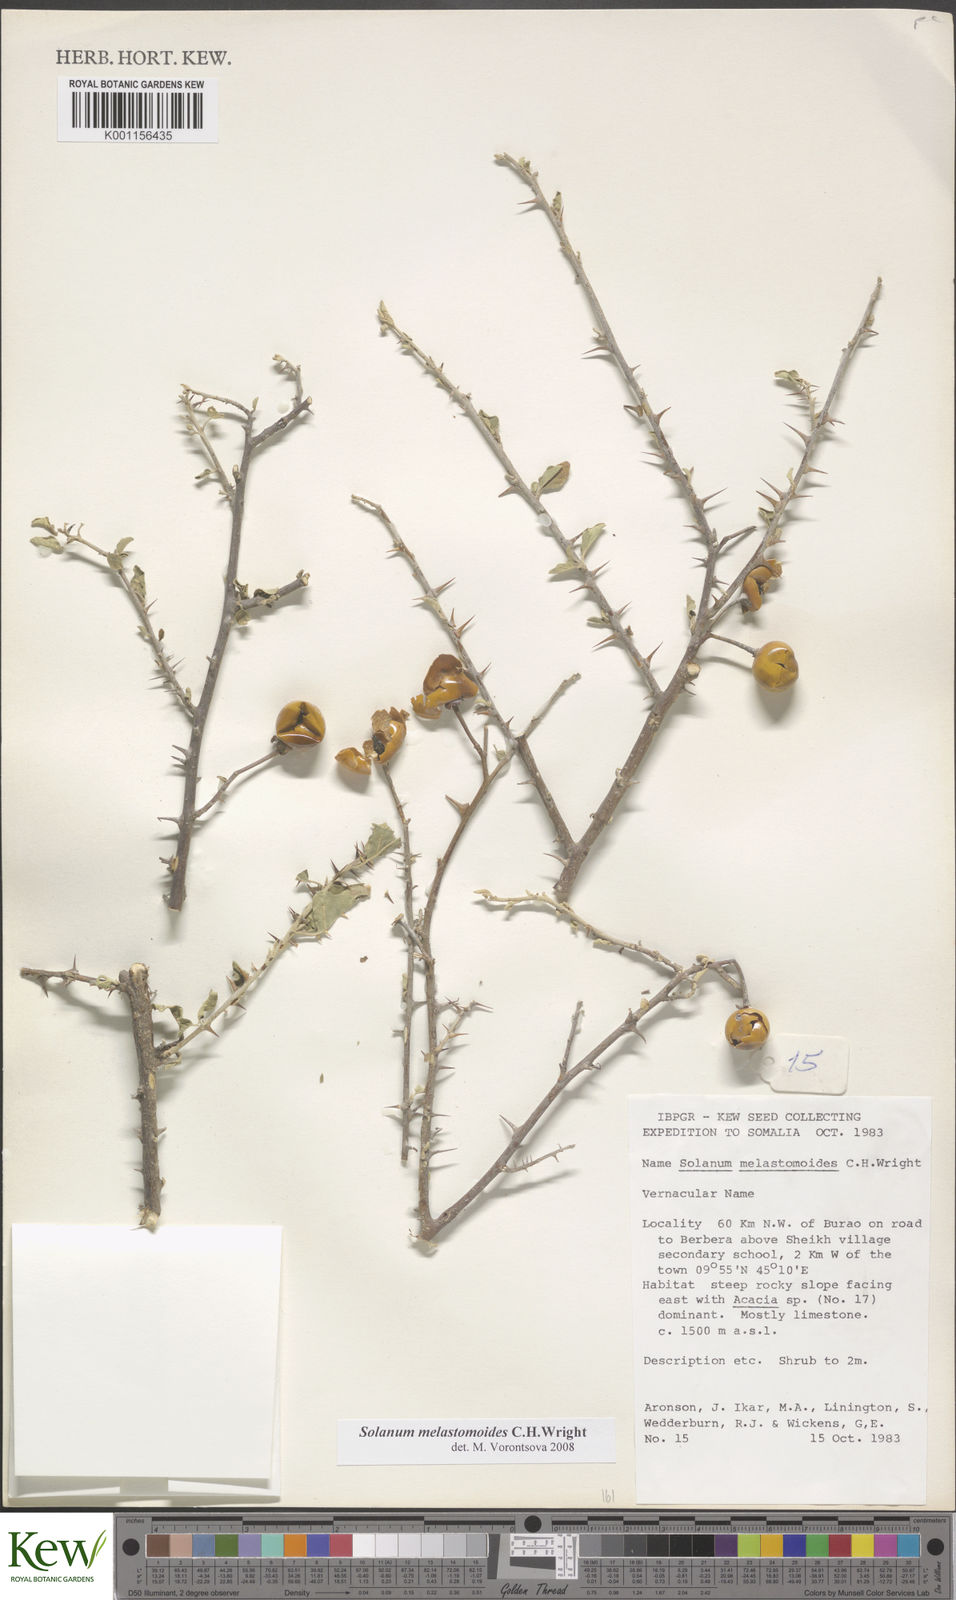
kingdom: Plantae
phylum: Tracheophyta
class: Magnoliopsida
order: Solanales
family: Solanaceae
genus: Solanum
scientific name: Solanum melastomoides
